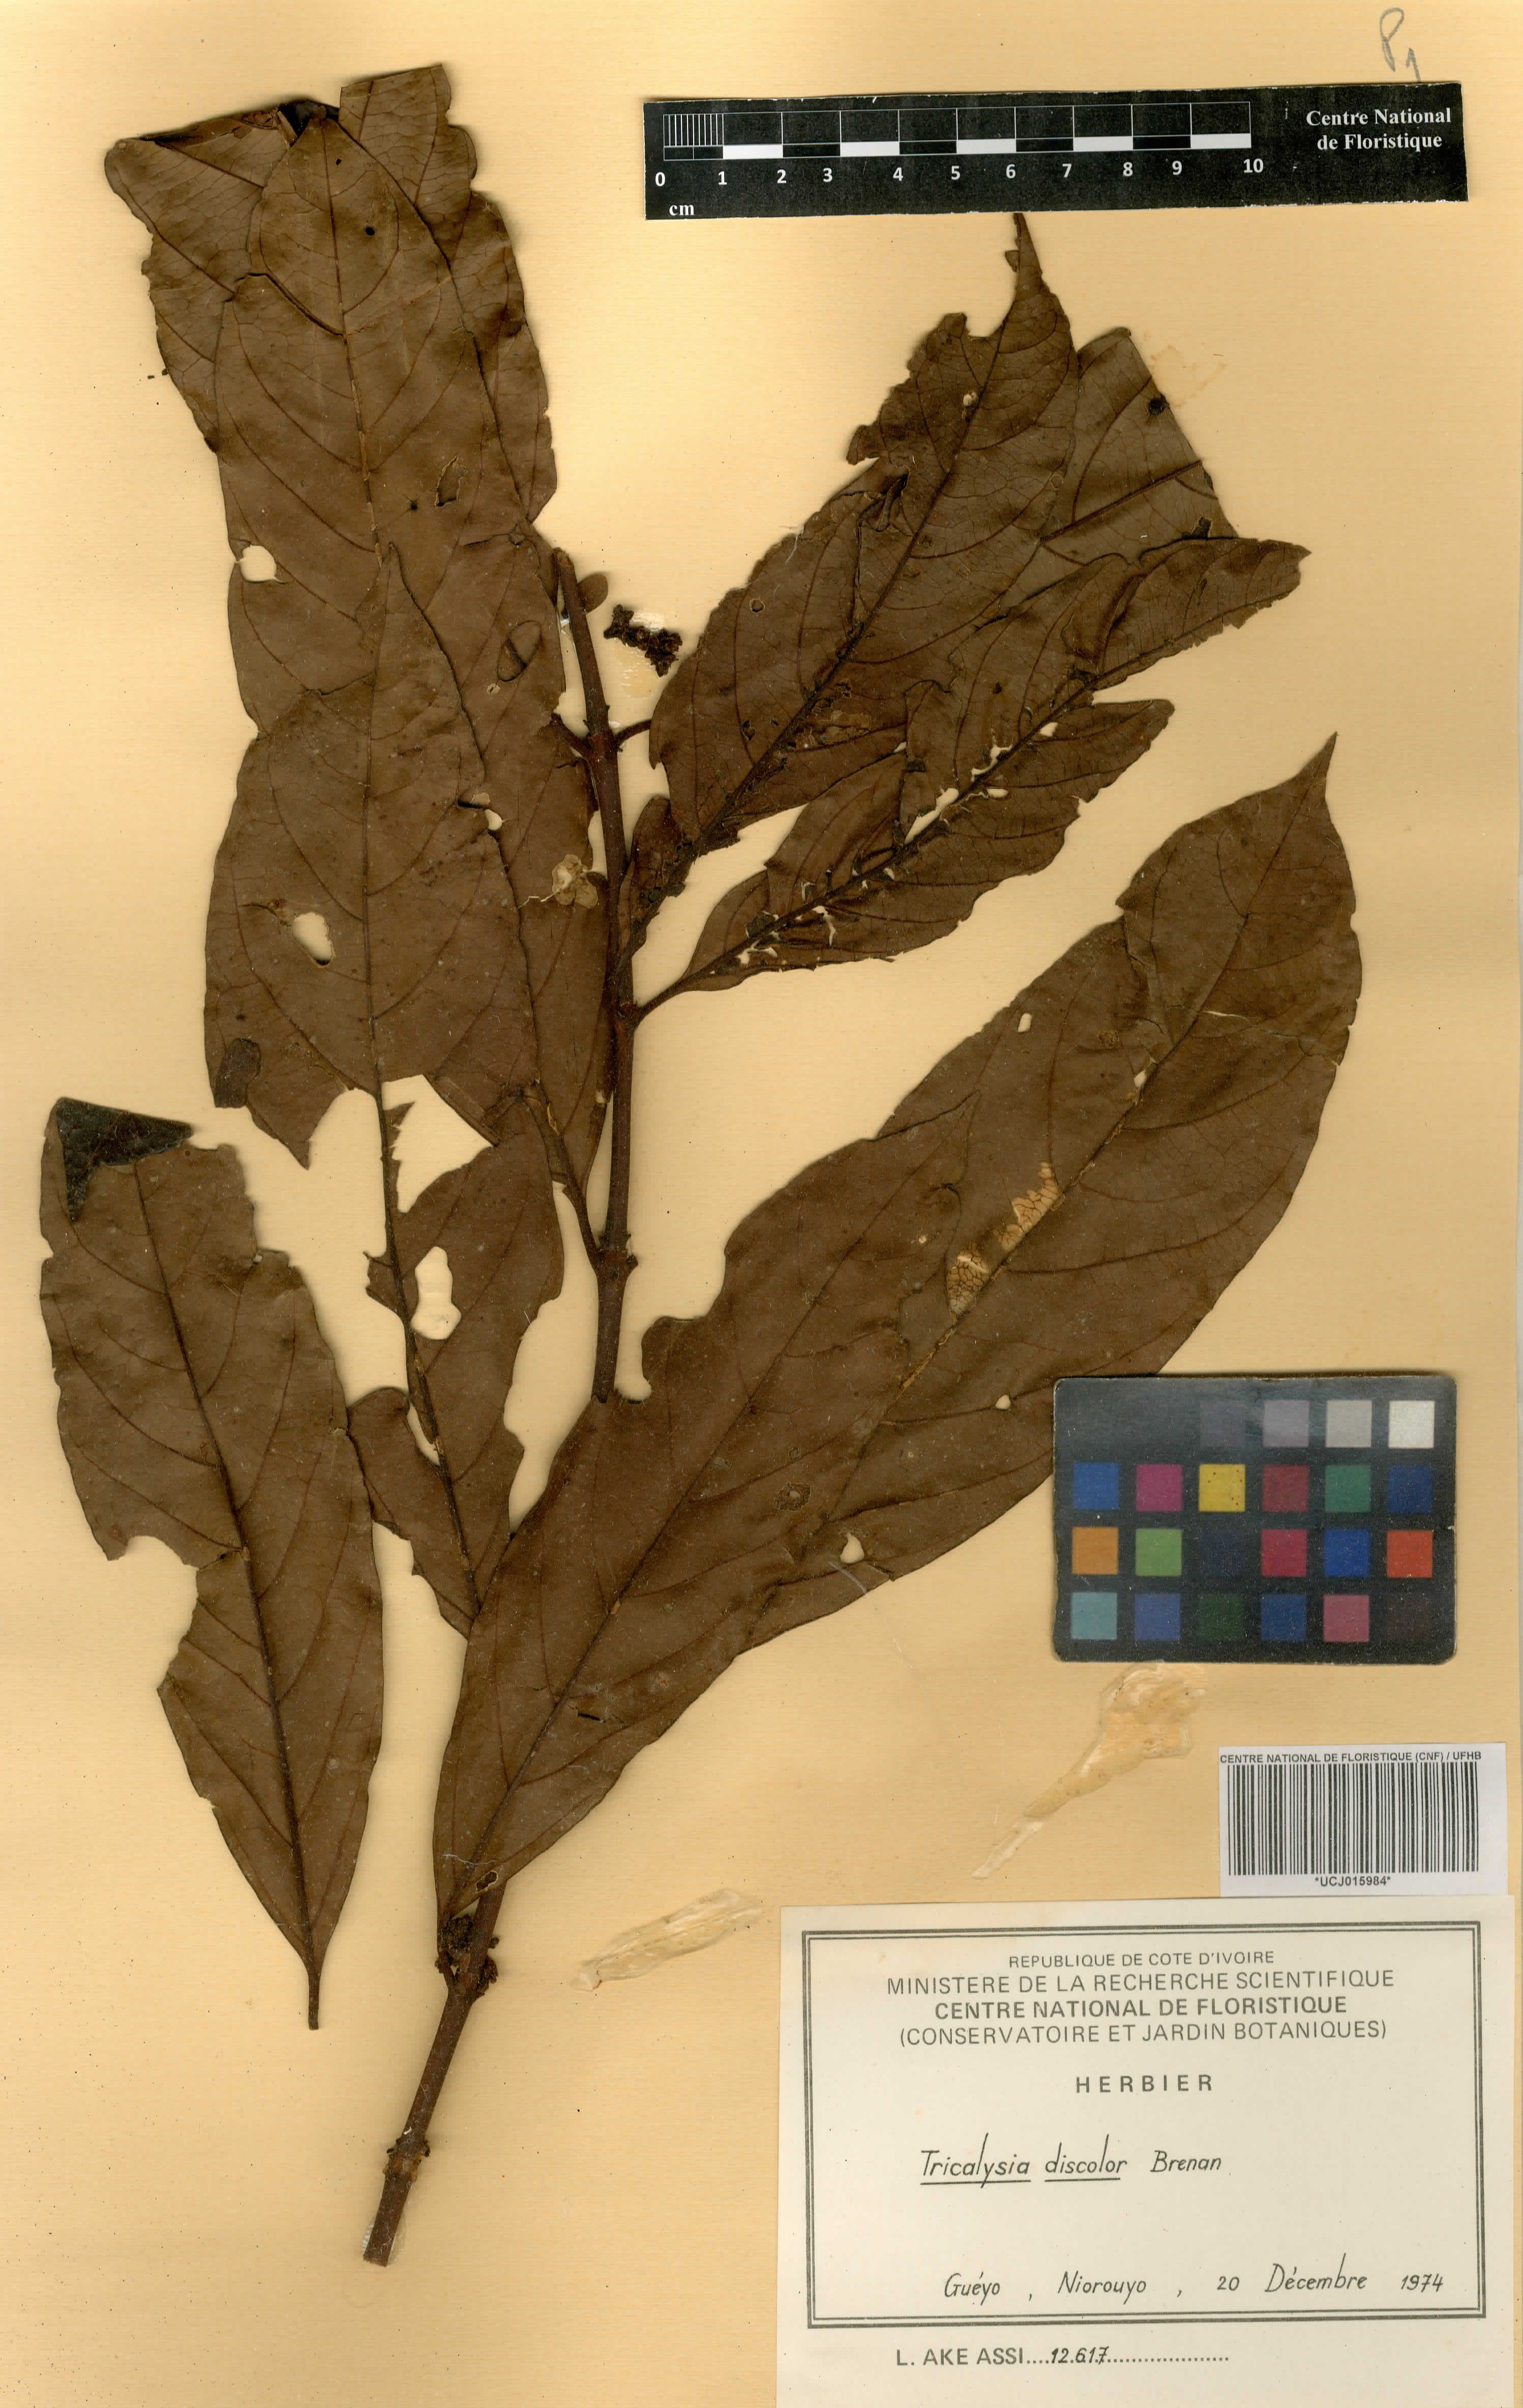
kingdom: Plantae
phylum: Tracheophyta
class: Magnoliopsida
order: Gentianales
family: Rubiaceae
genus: Empogona
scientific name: Empogona discolor
